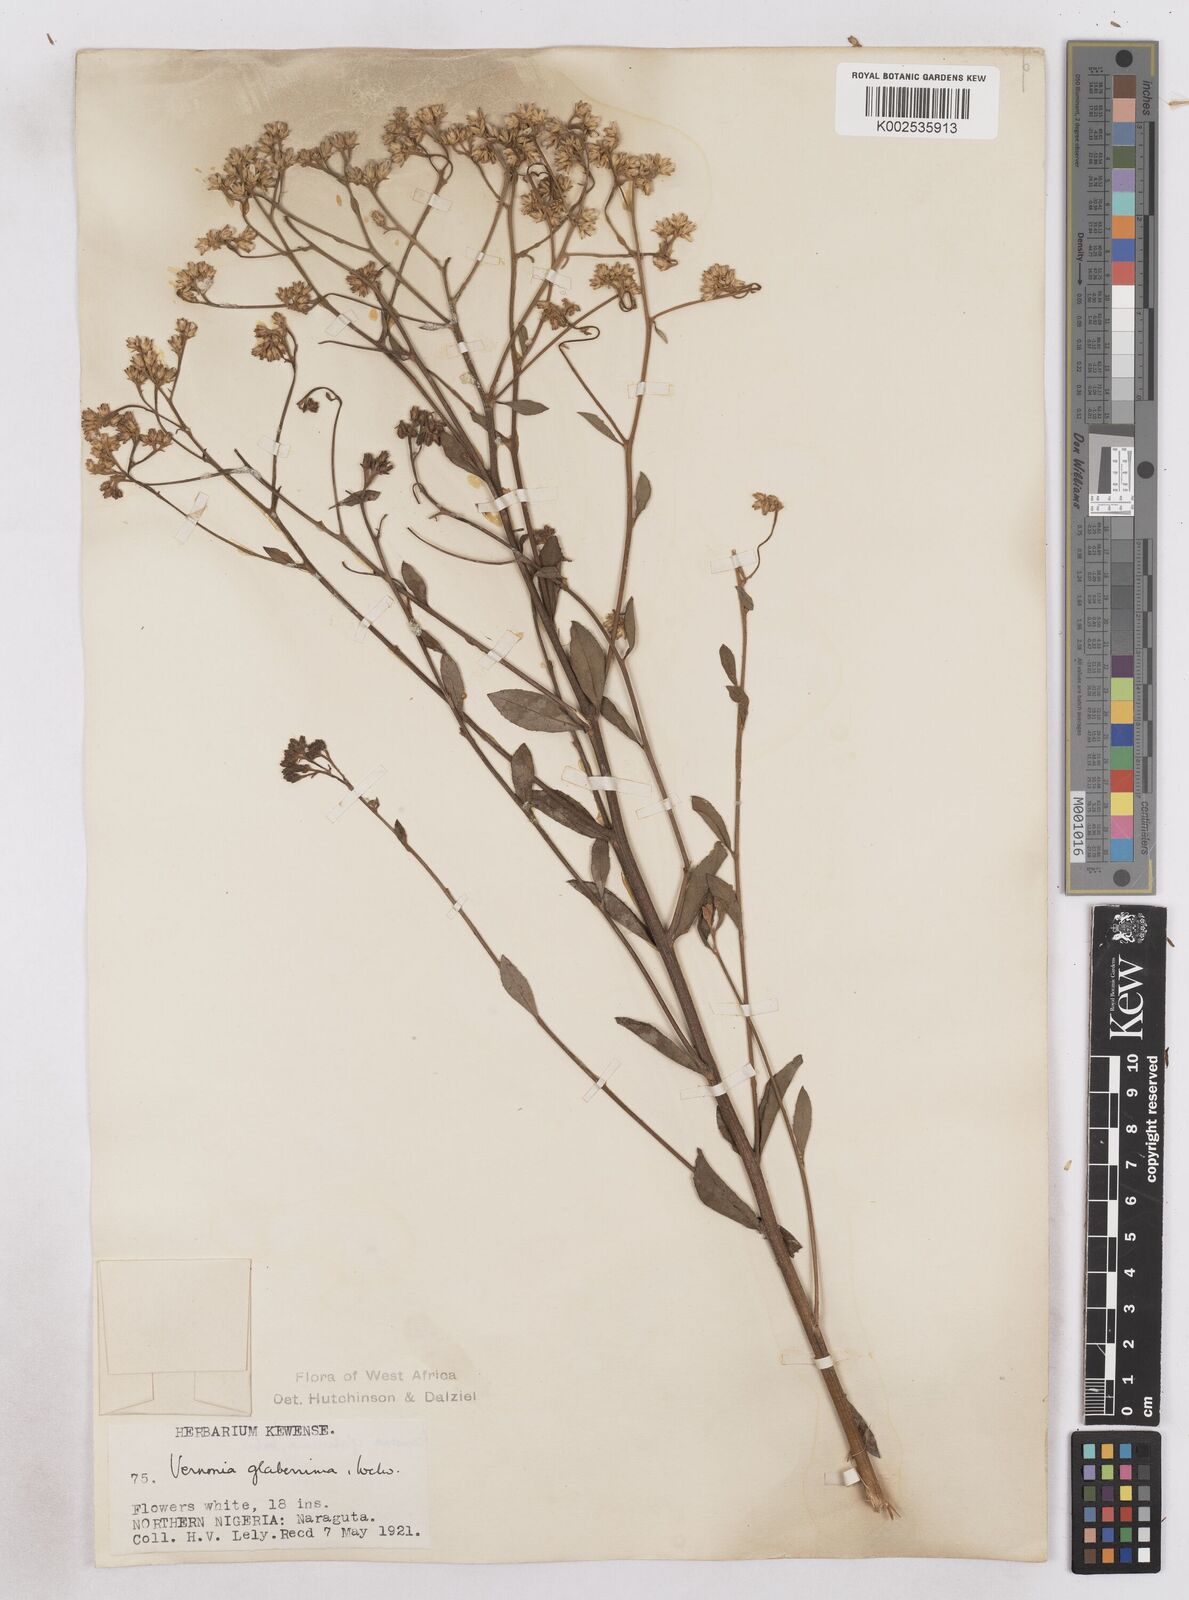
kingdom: Plantae
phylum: Tracheophyta
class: Magnoliopsida
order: Asterales
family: Asteraceae
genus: Gymnanthemum
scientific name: Gymnanthemum glaberrimum
